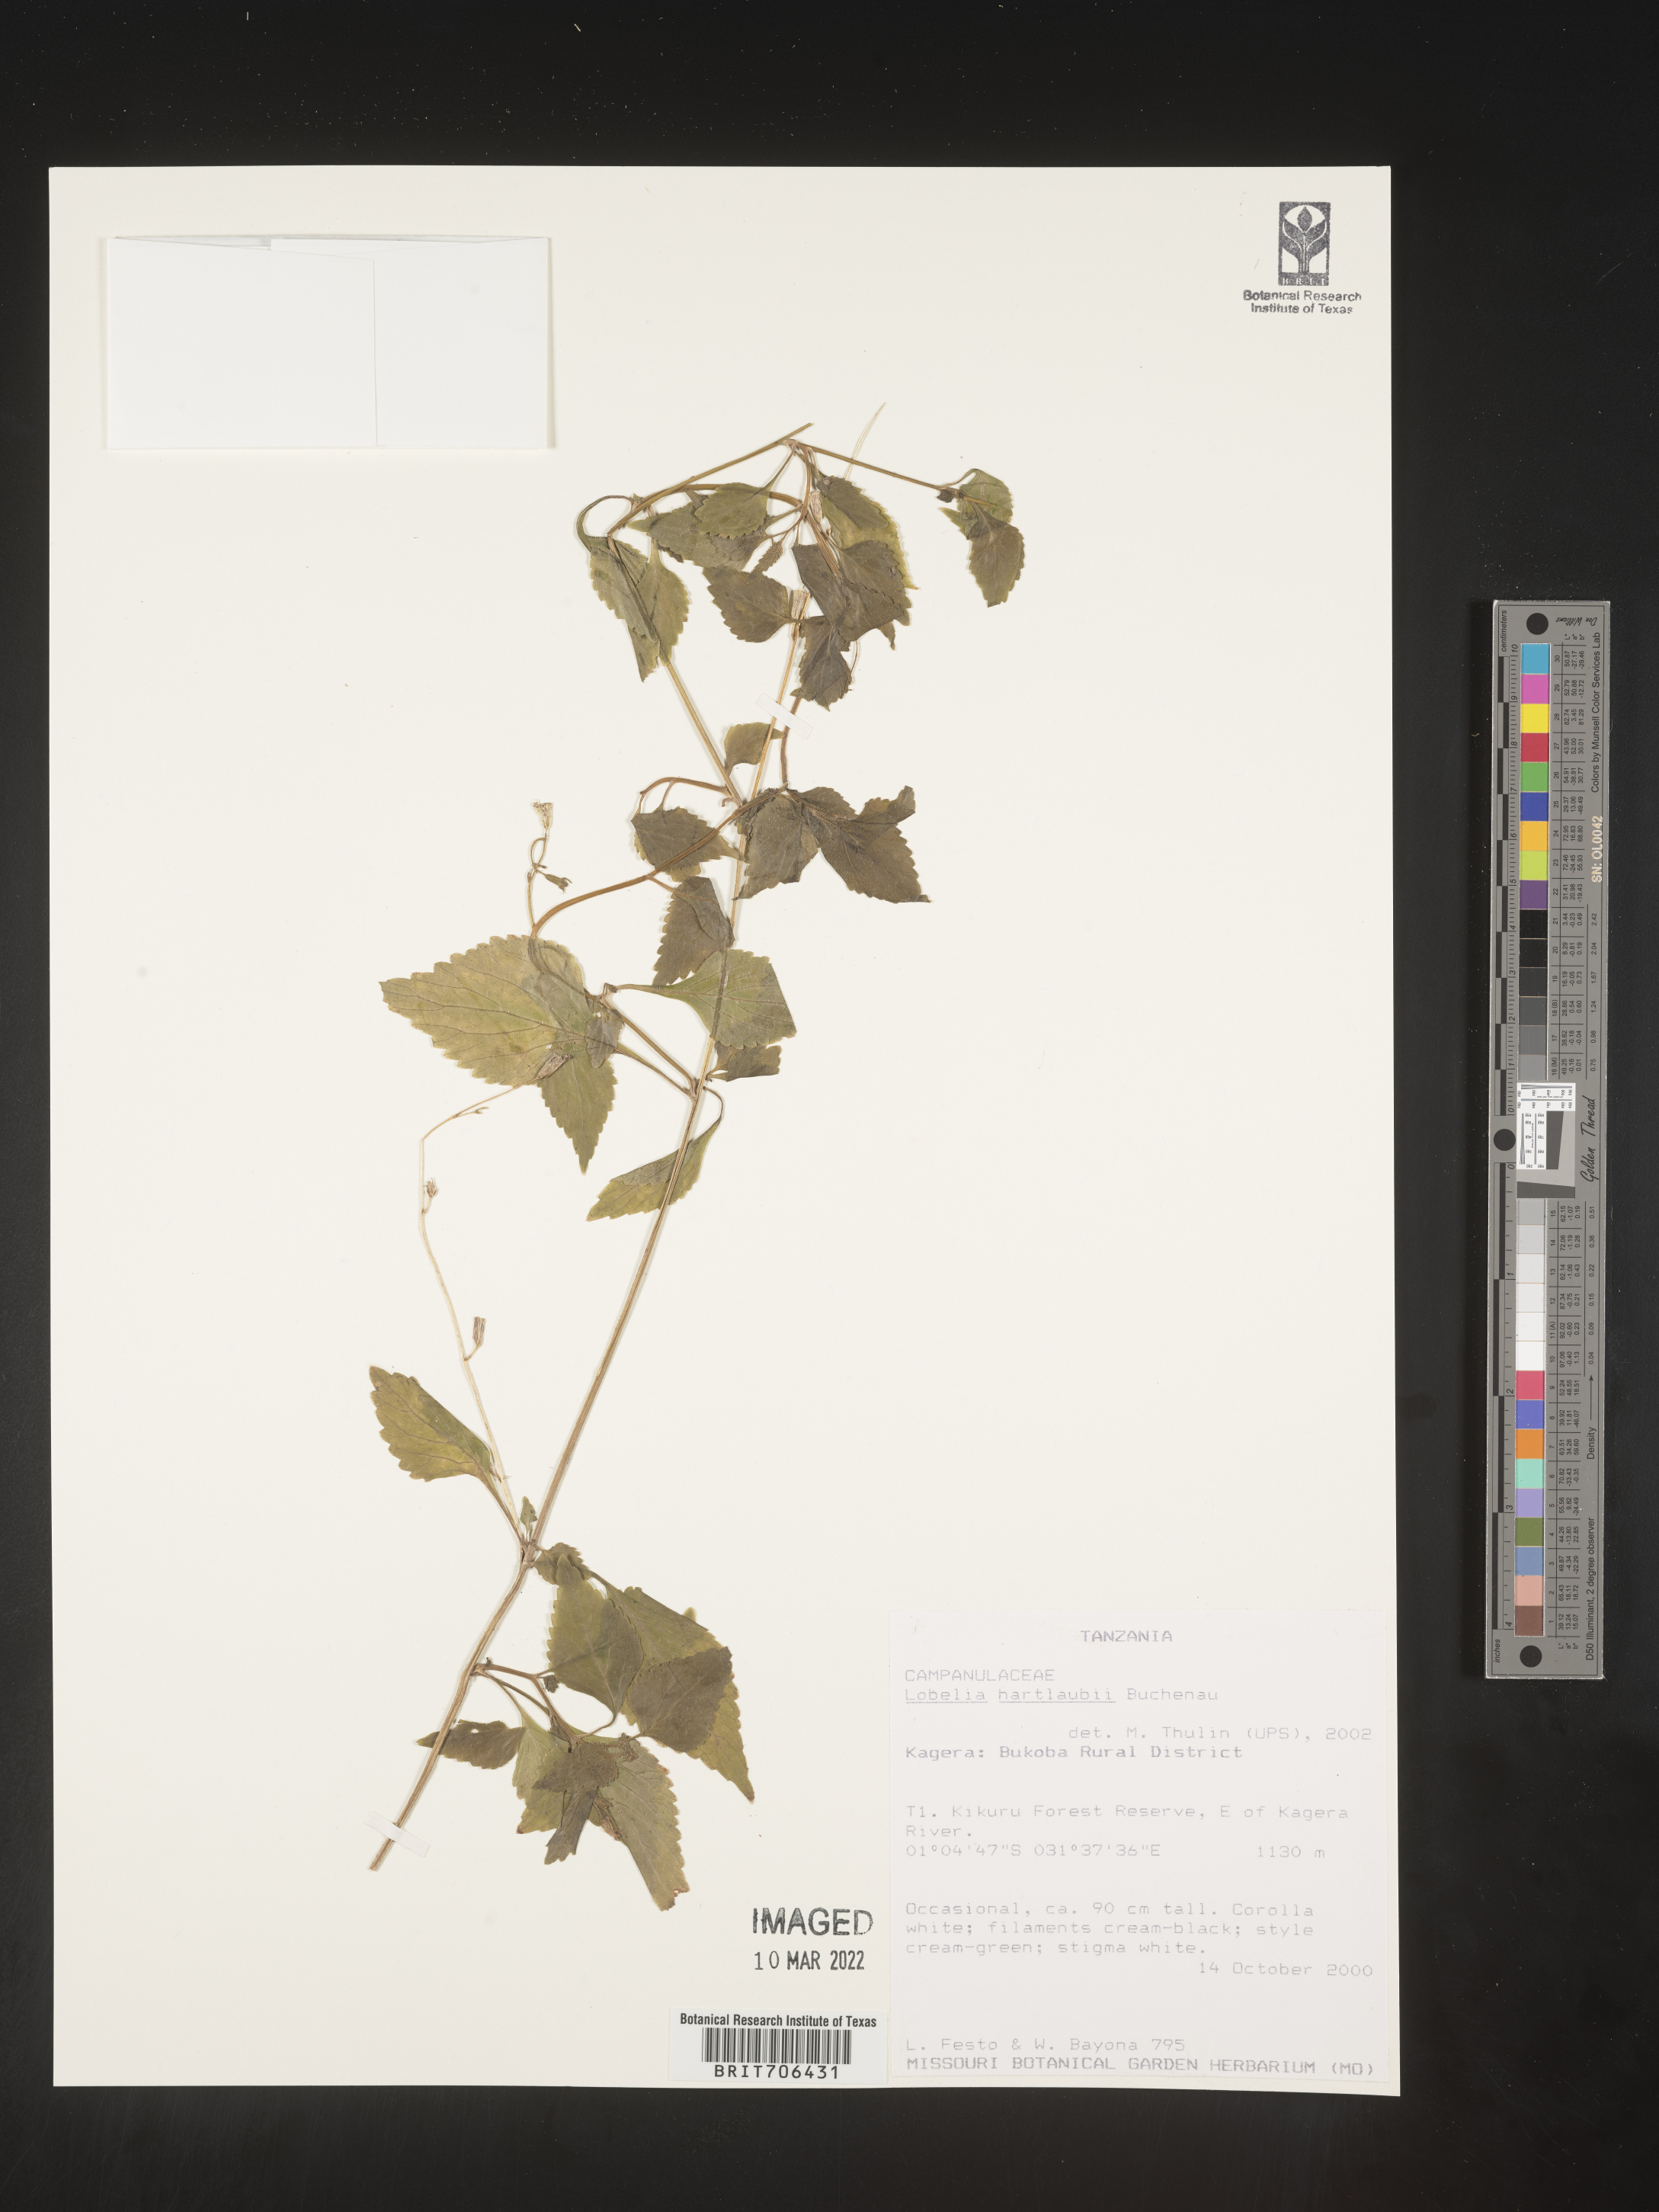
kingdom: Plantae
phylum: Tracheophyta
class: Magnoliopsida
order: Asterales
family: Campanulaceae
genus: Lobelia
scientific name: Lobelia
